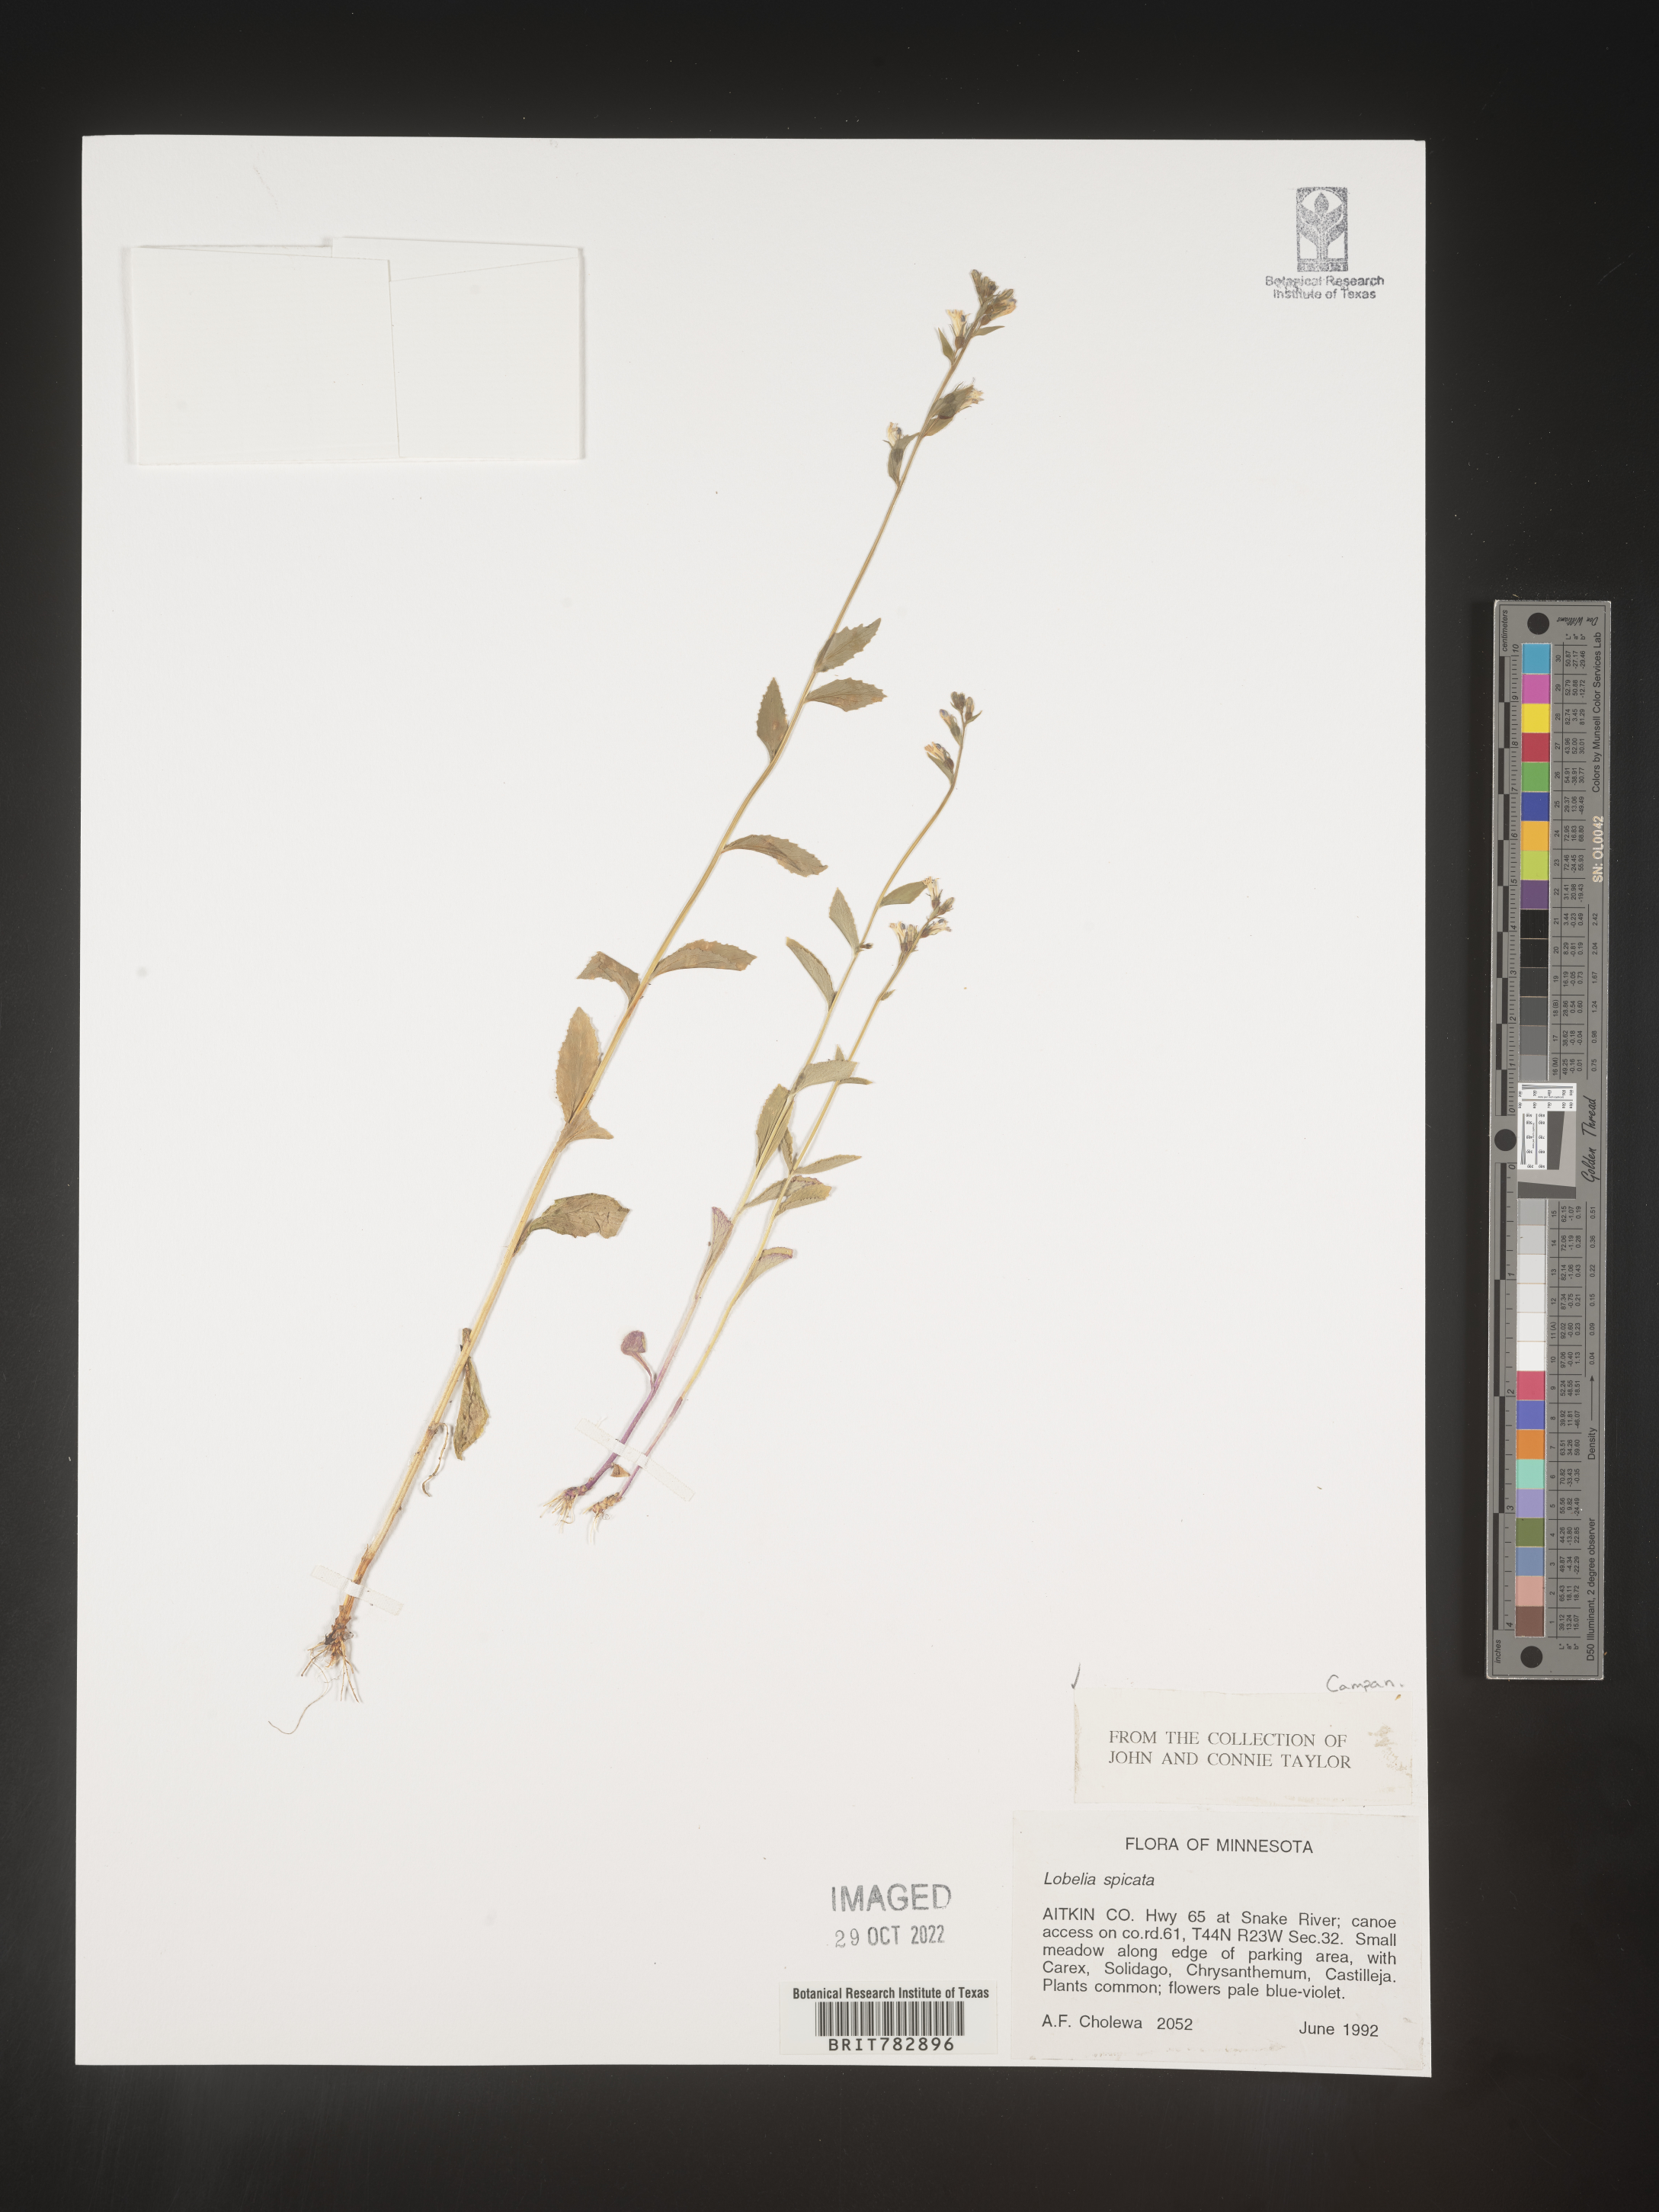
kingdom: Plantae
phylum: Tracheophyta
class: Magnoliopsida
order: Asterales
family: Campanulaceae
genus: Lobelia
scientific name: Lobelia spicata
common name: Pale-spike lobelia
